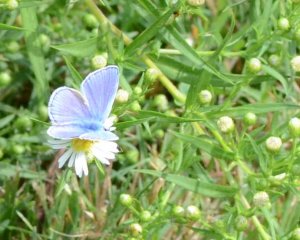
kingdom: Animalia
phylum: Arthropoda
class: Insecta
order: Lepidoptera
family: Lycaenidae
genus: Polyommatus
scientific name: Polyommatus icarus
